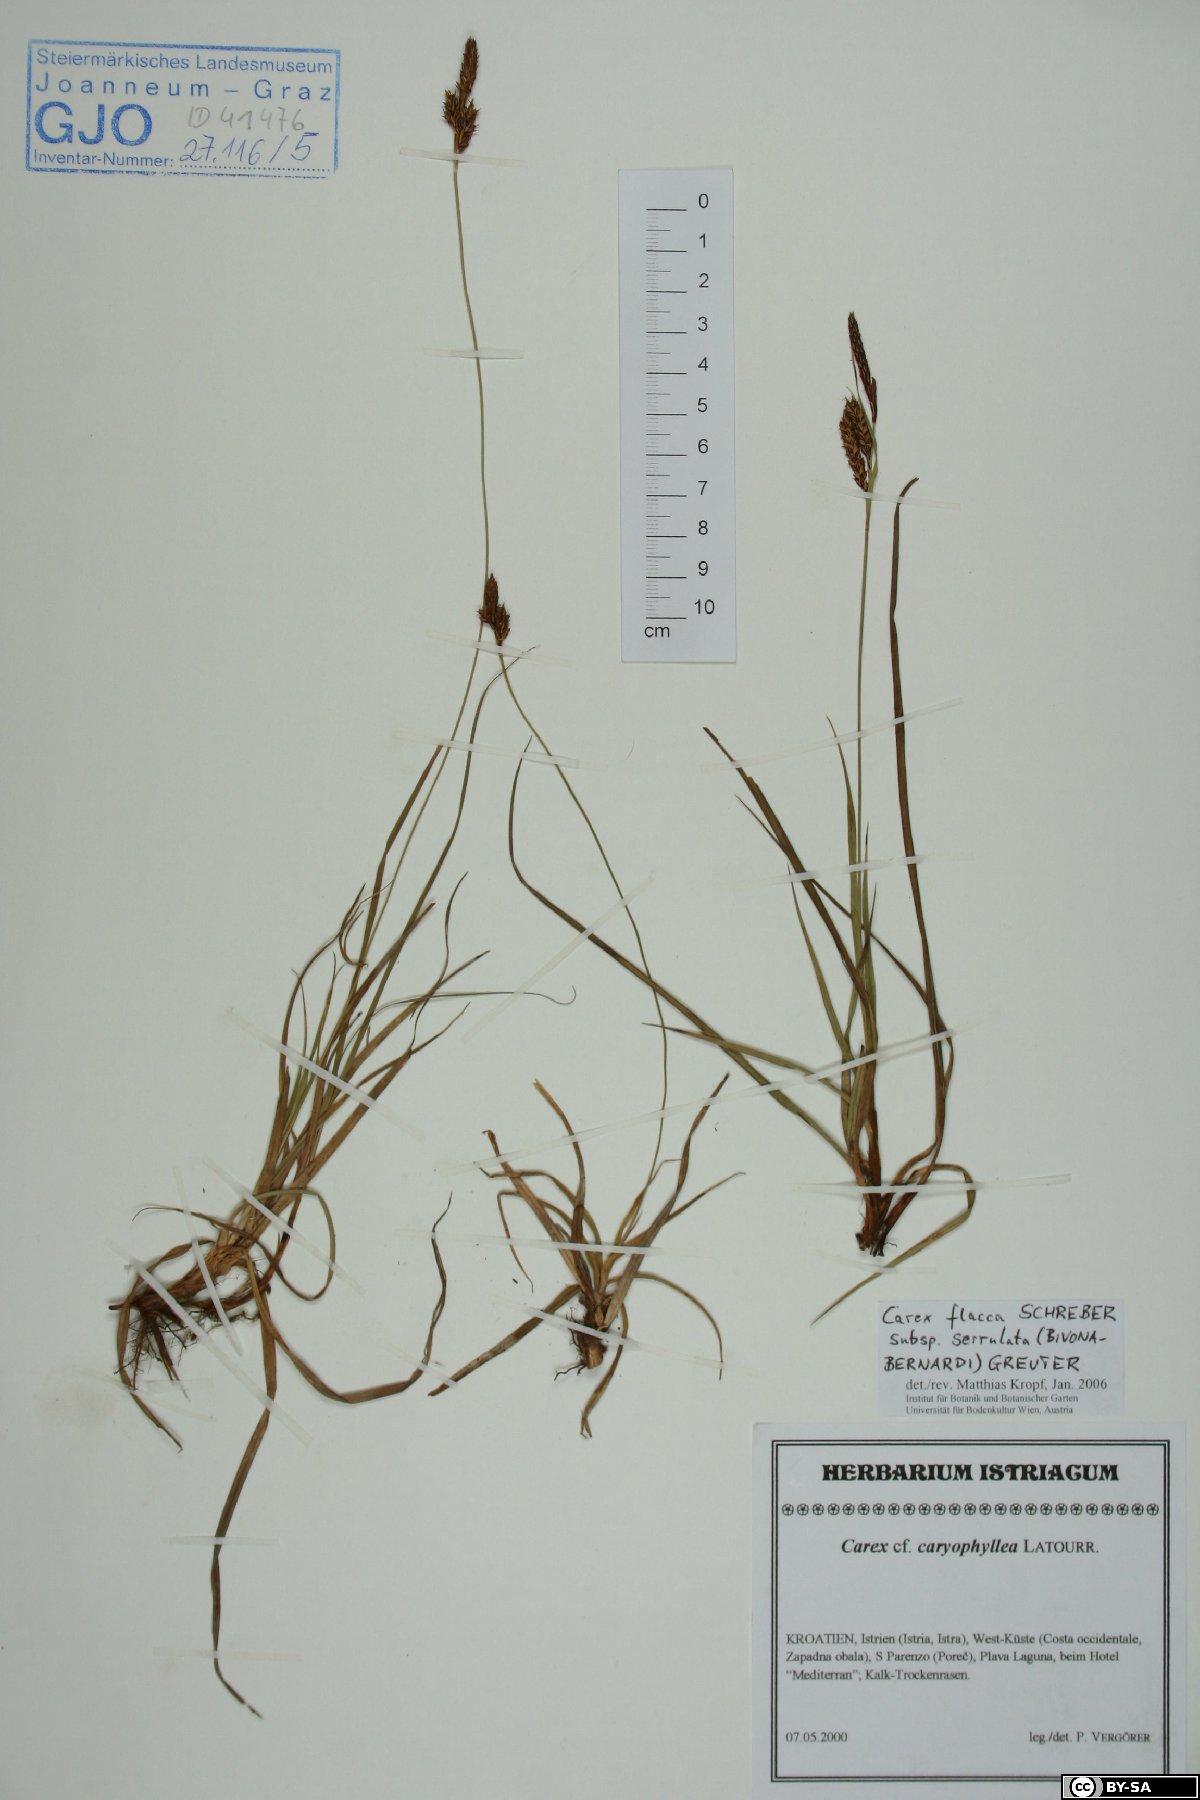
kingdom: Plantae
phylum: Tracheophyta
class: Liliopsida
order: Poales
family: Cyperaceae
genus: Carex
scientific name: Carex flacca
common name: Glaucous sedge
